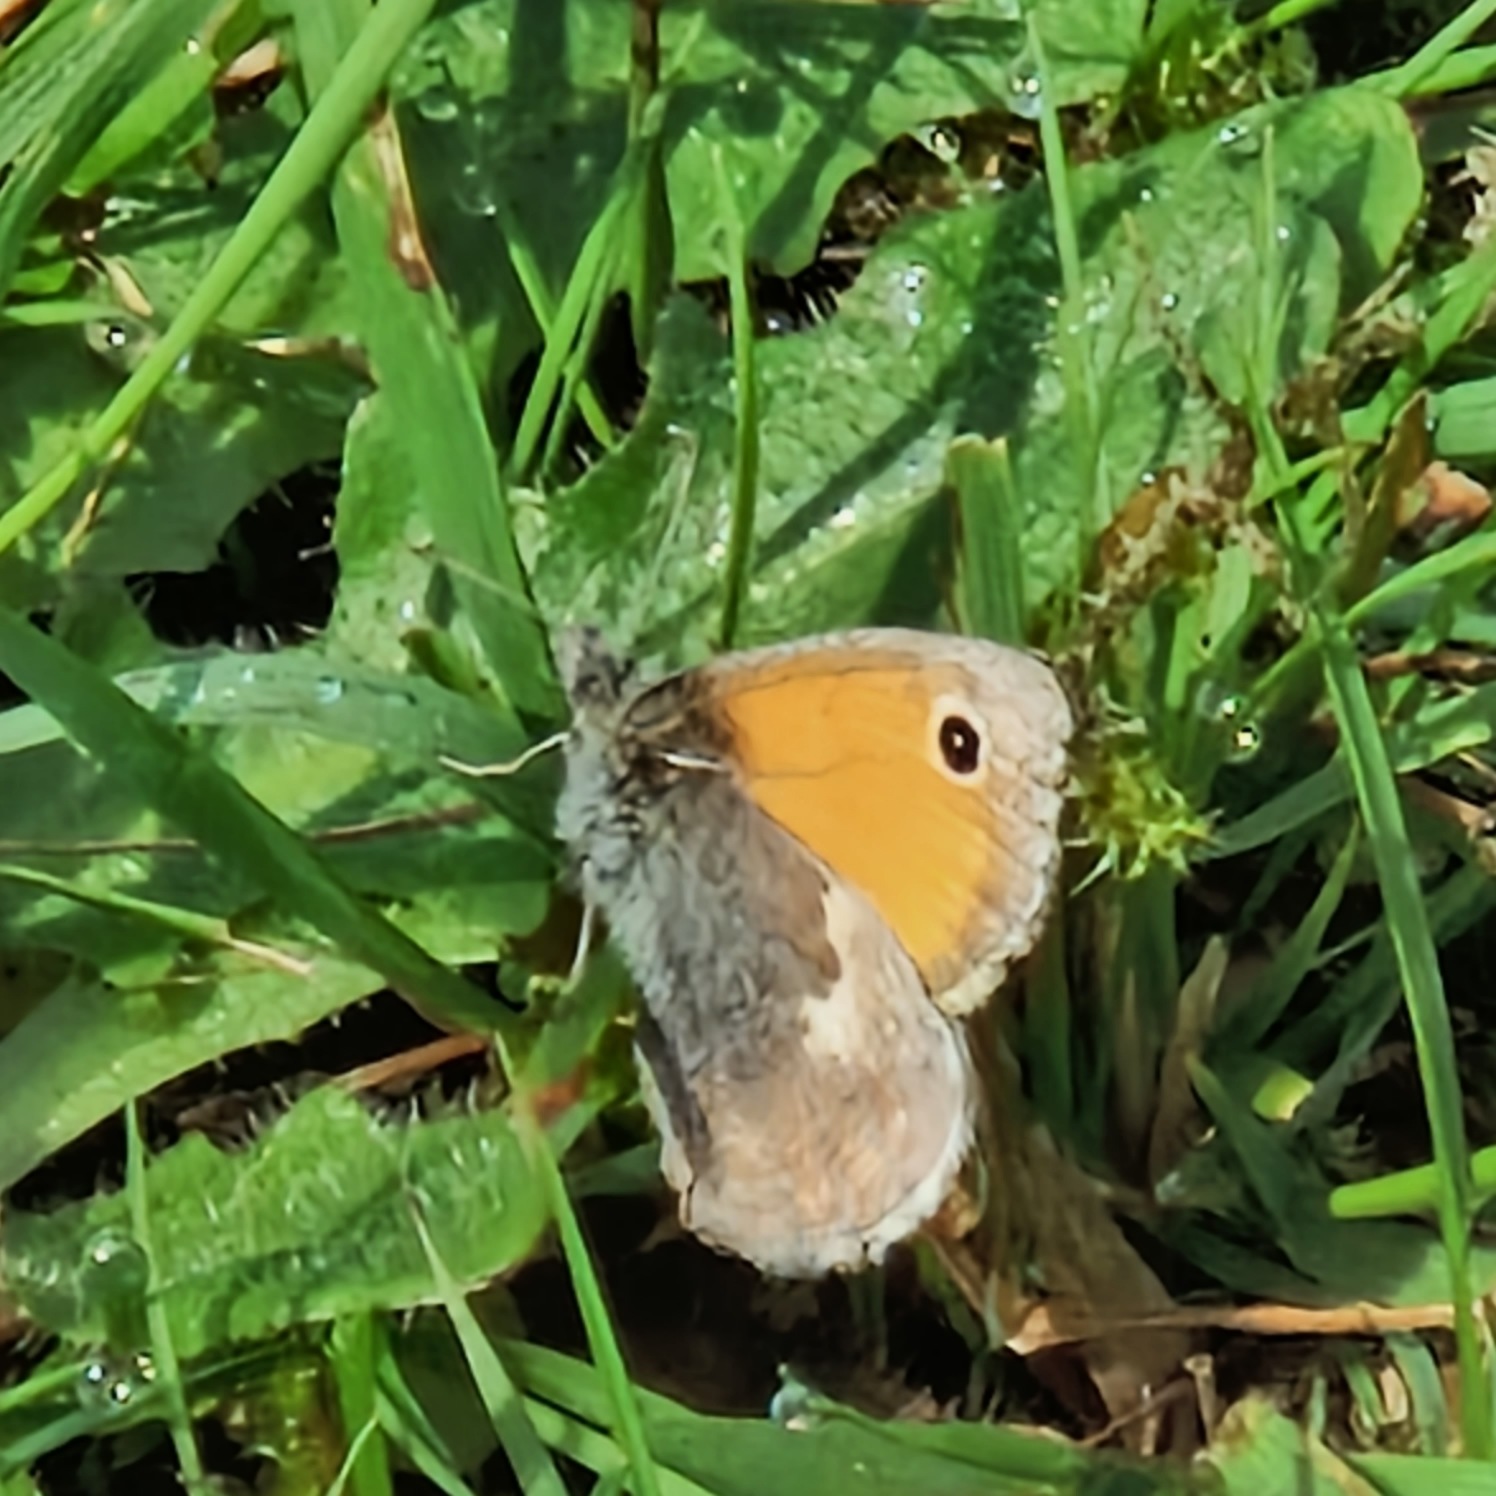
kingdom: Animalia
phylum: Arthropoda
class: Insecta
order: Lepidoptera
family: Nymphalidae
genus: Coenonympha
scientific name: Coenonympha pamphilus
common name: Okkergul randøje
